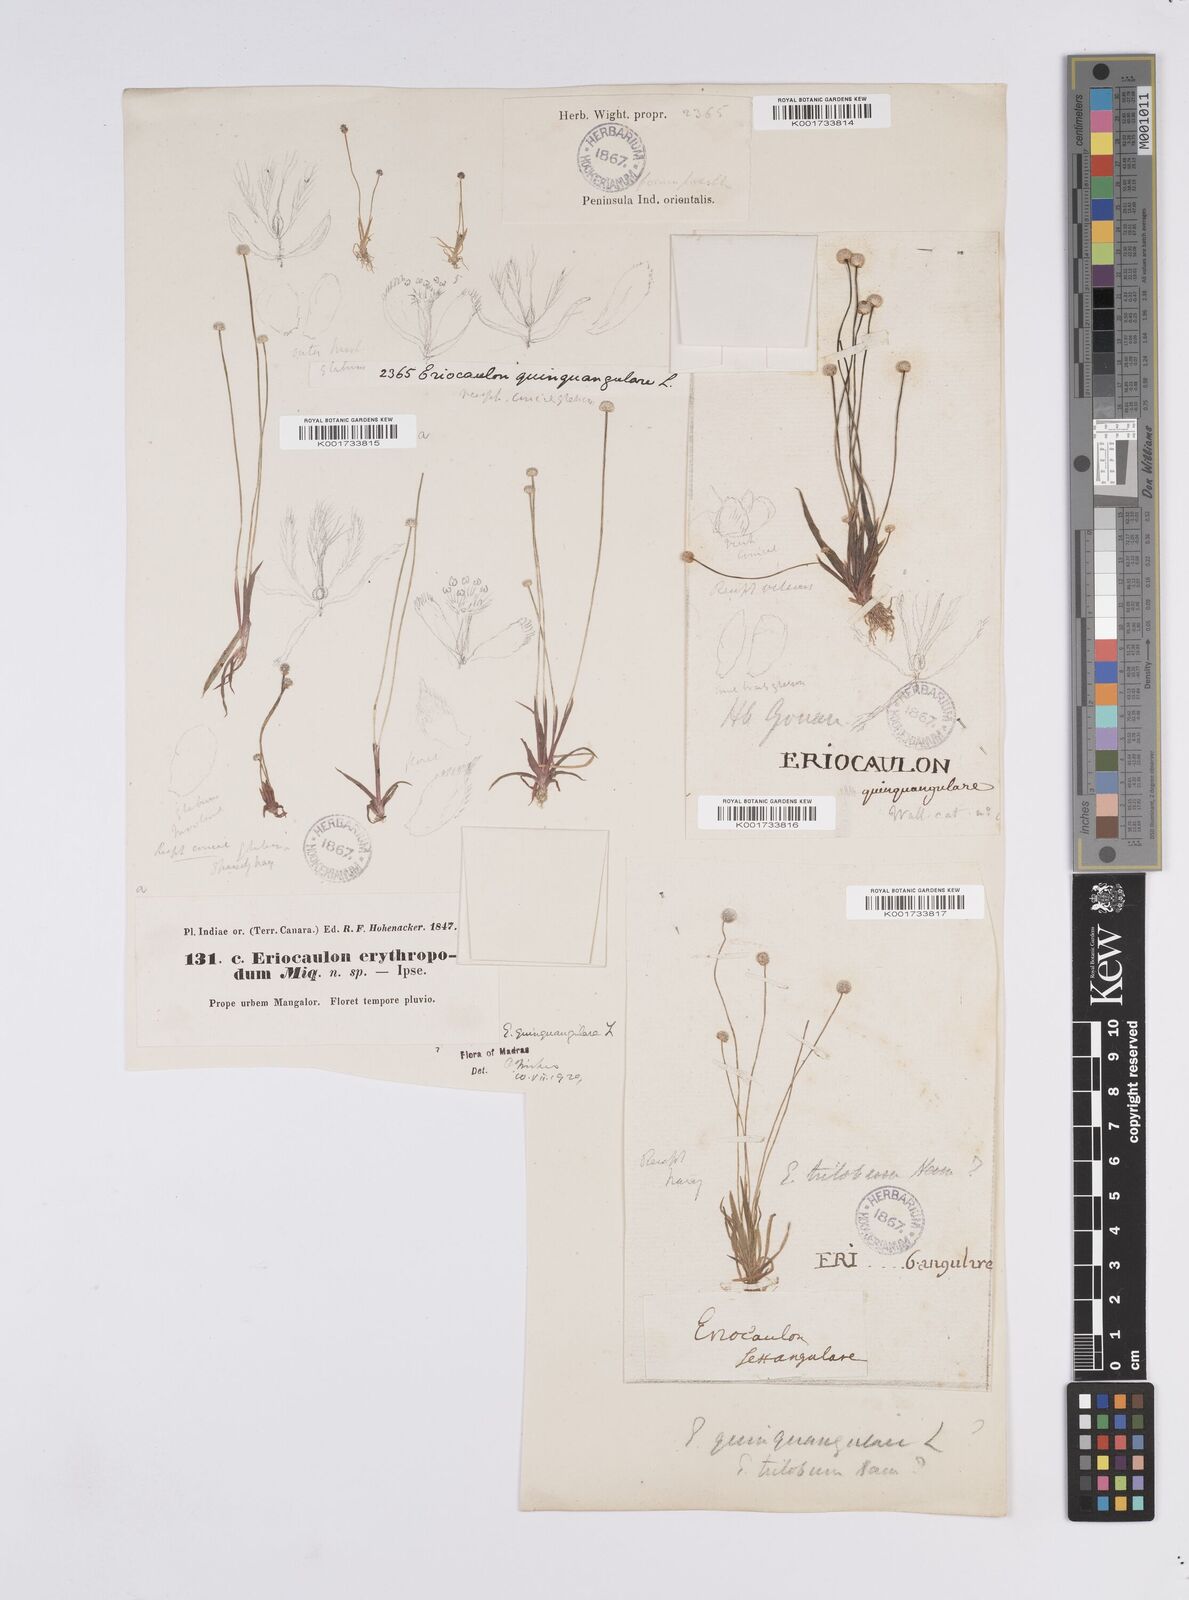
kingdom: Plantae
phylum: Tracheophyta
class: Liliopsida
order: Poales
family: Eriocaulaceae
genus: Eriocaulon
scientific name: Eriocaulon quinquangulare
